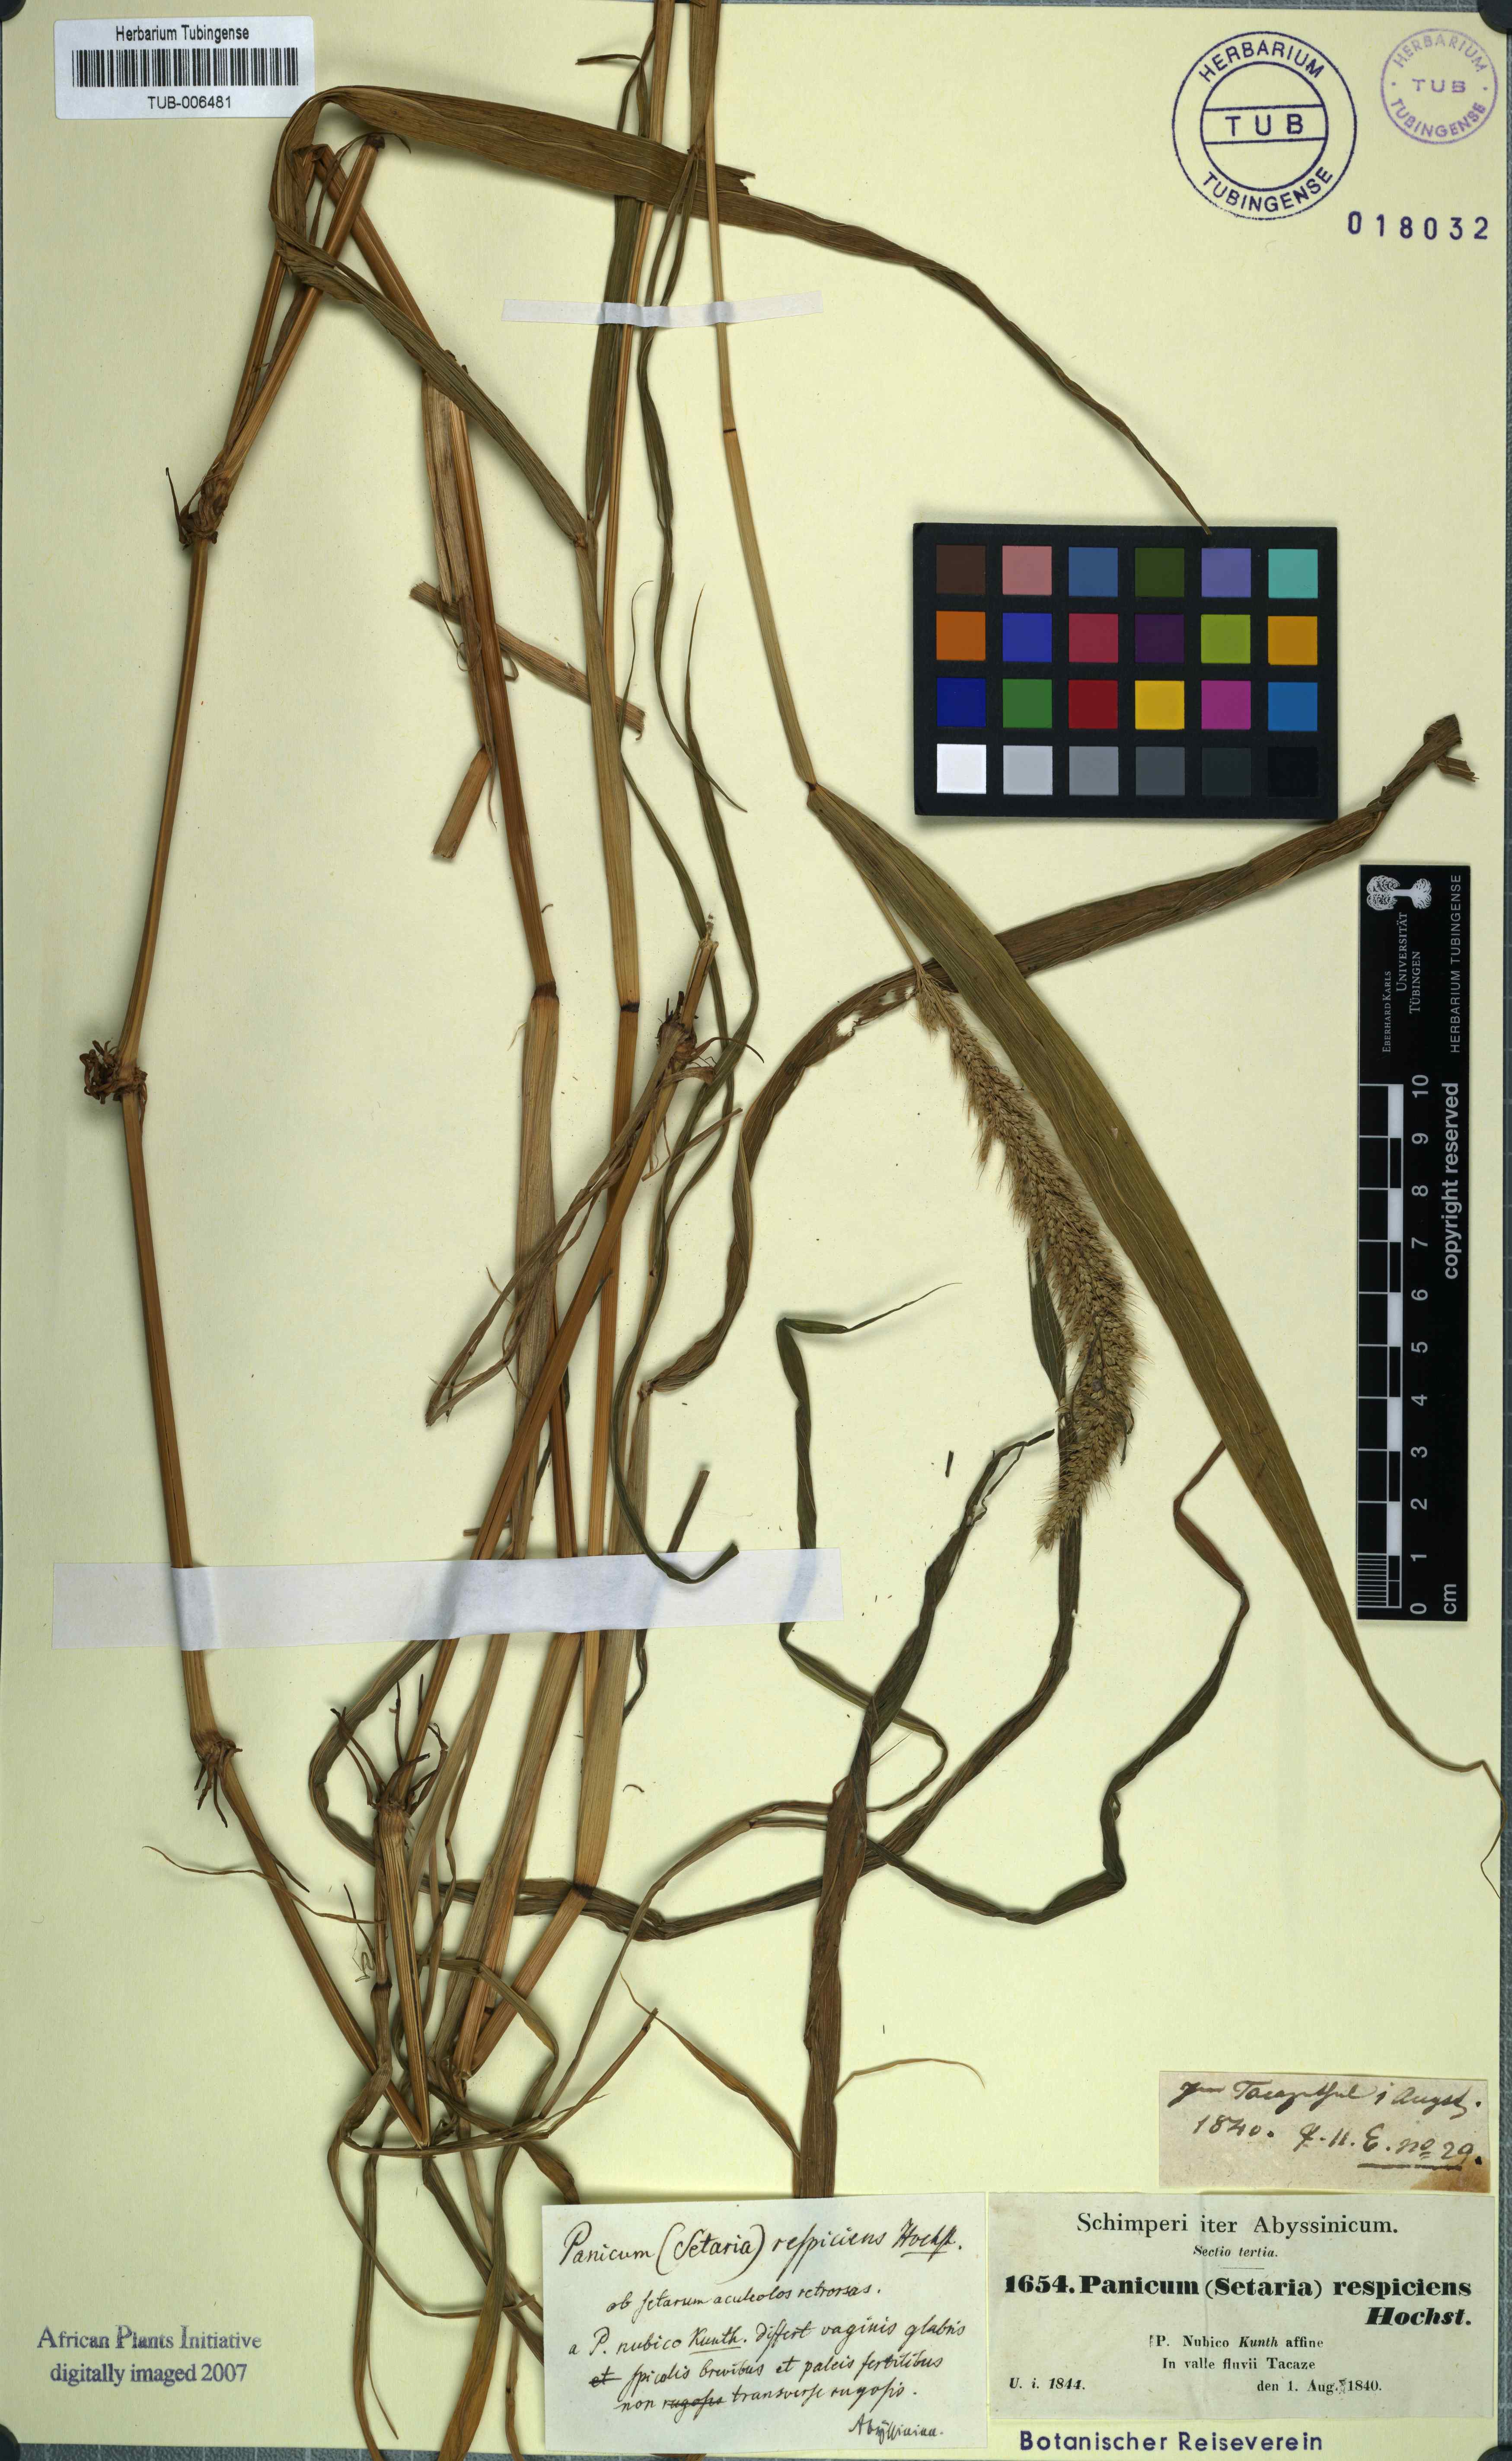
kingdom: Plantae
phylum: Tracheophyta
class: Liliopsida
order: Poales
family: Poaceae
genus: Setaria
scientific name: Setaria adhaerens
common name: Adherent bristle-grass
